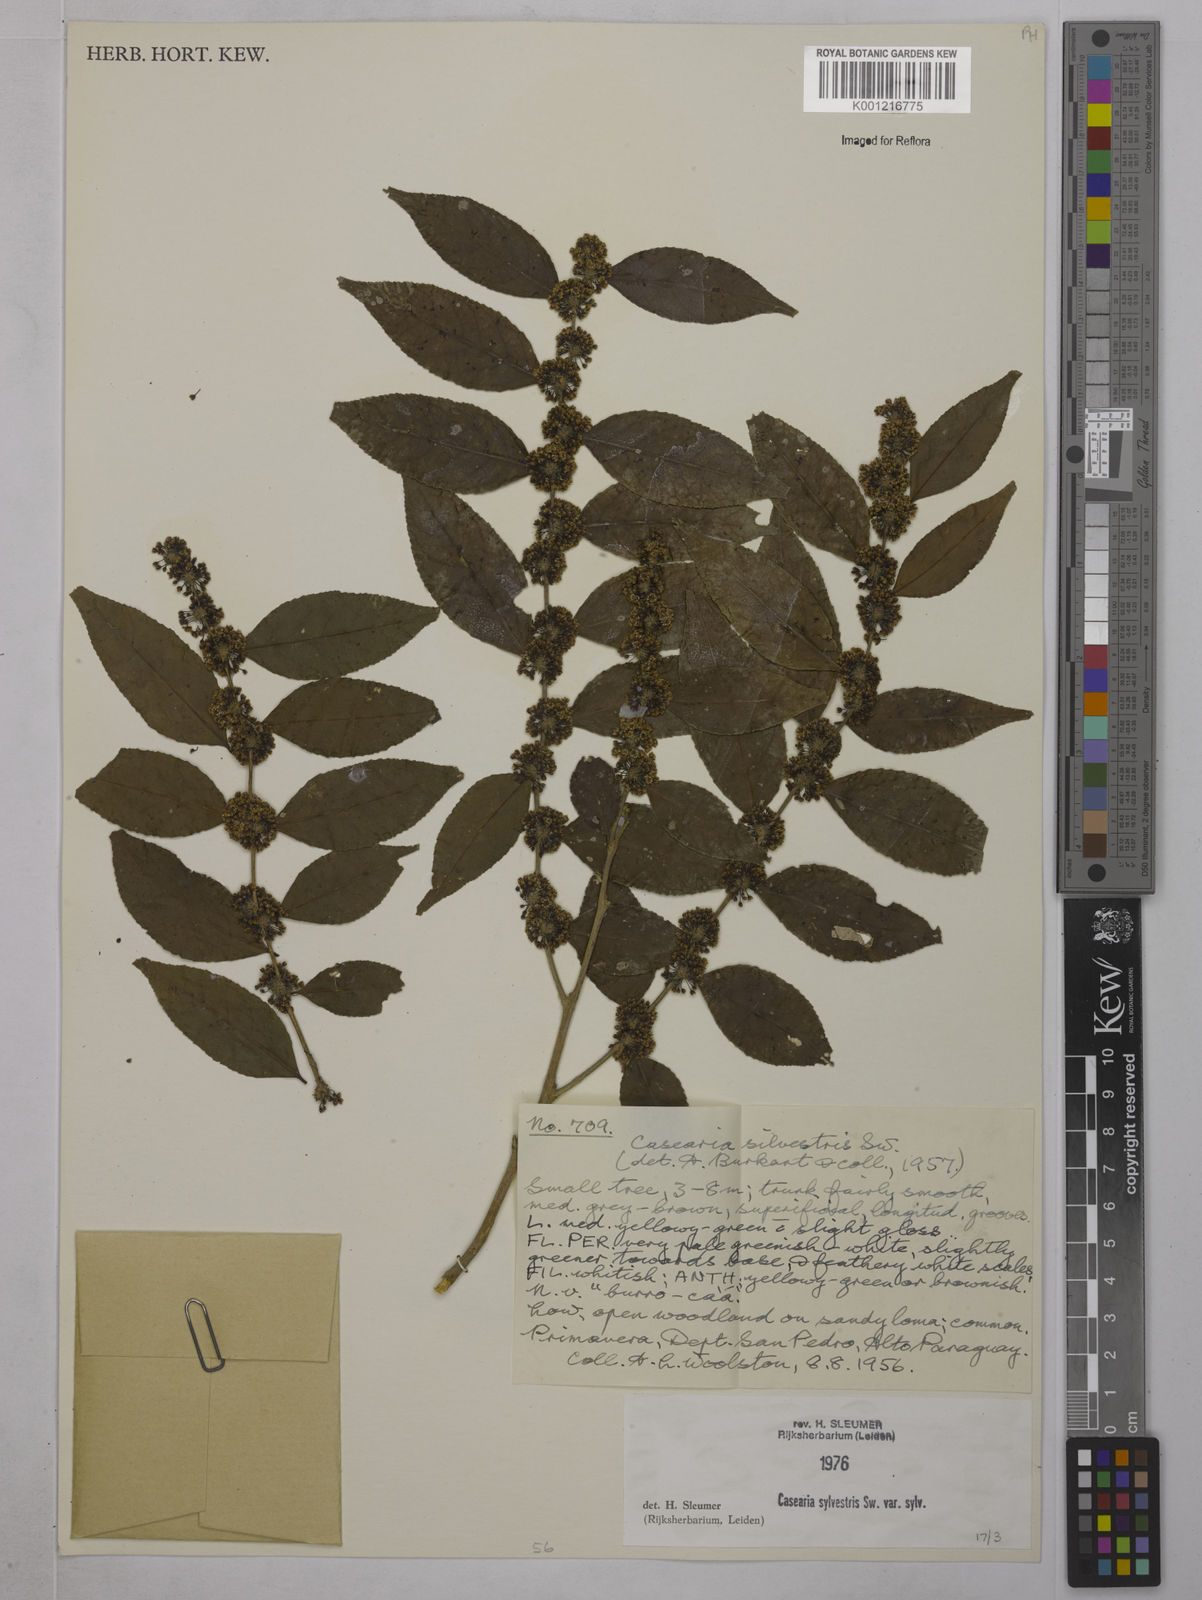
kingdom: Plantae
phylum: Tracheophyta
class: Magnoliopsida
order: Malpighiales
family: Salicaceae
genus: Casearia
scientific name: Casearia sylvestris
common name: Wild sage
